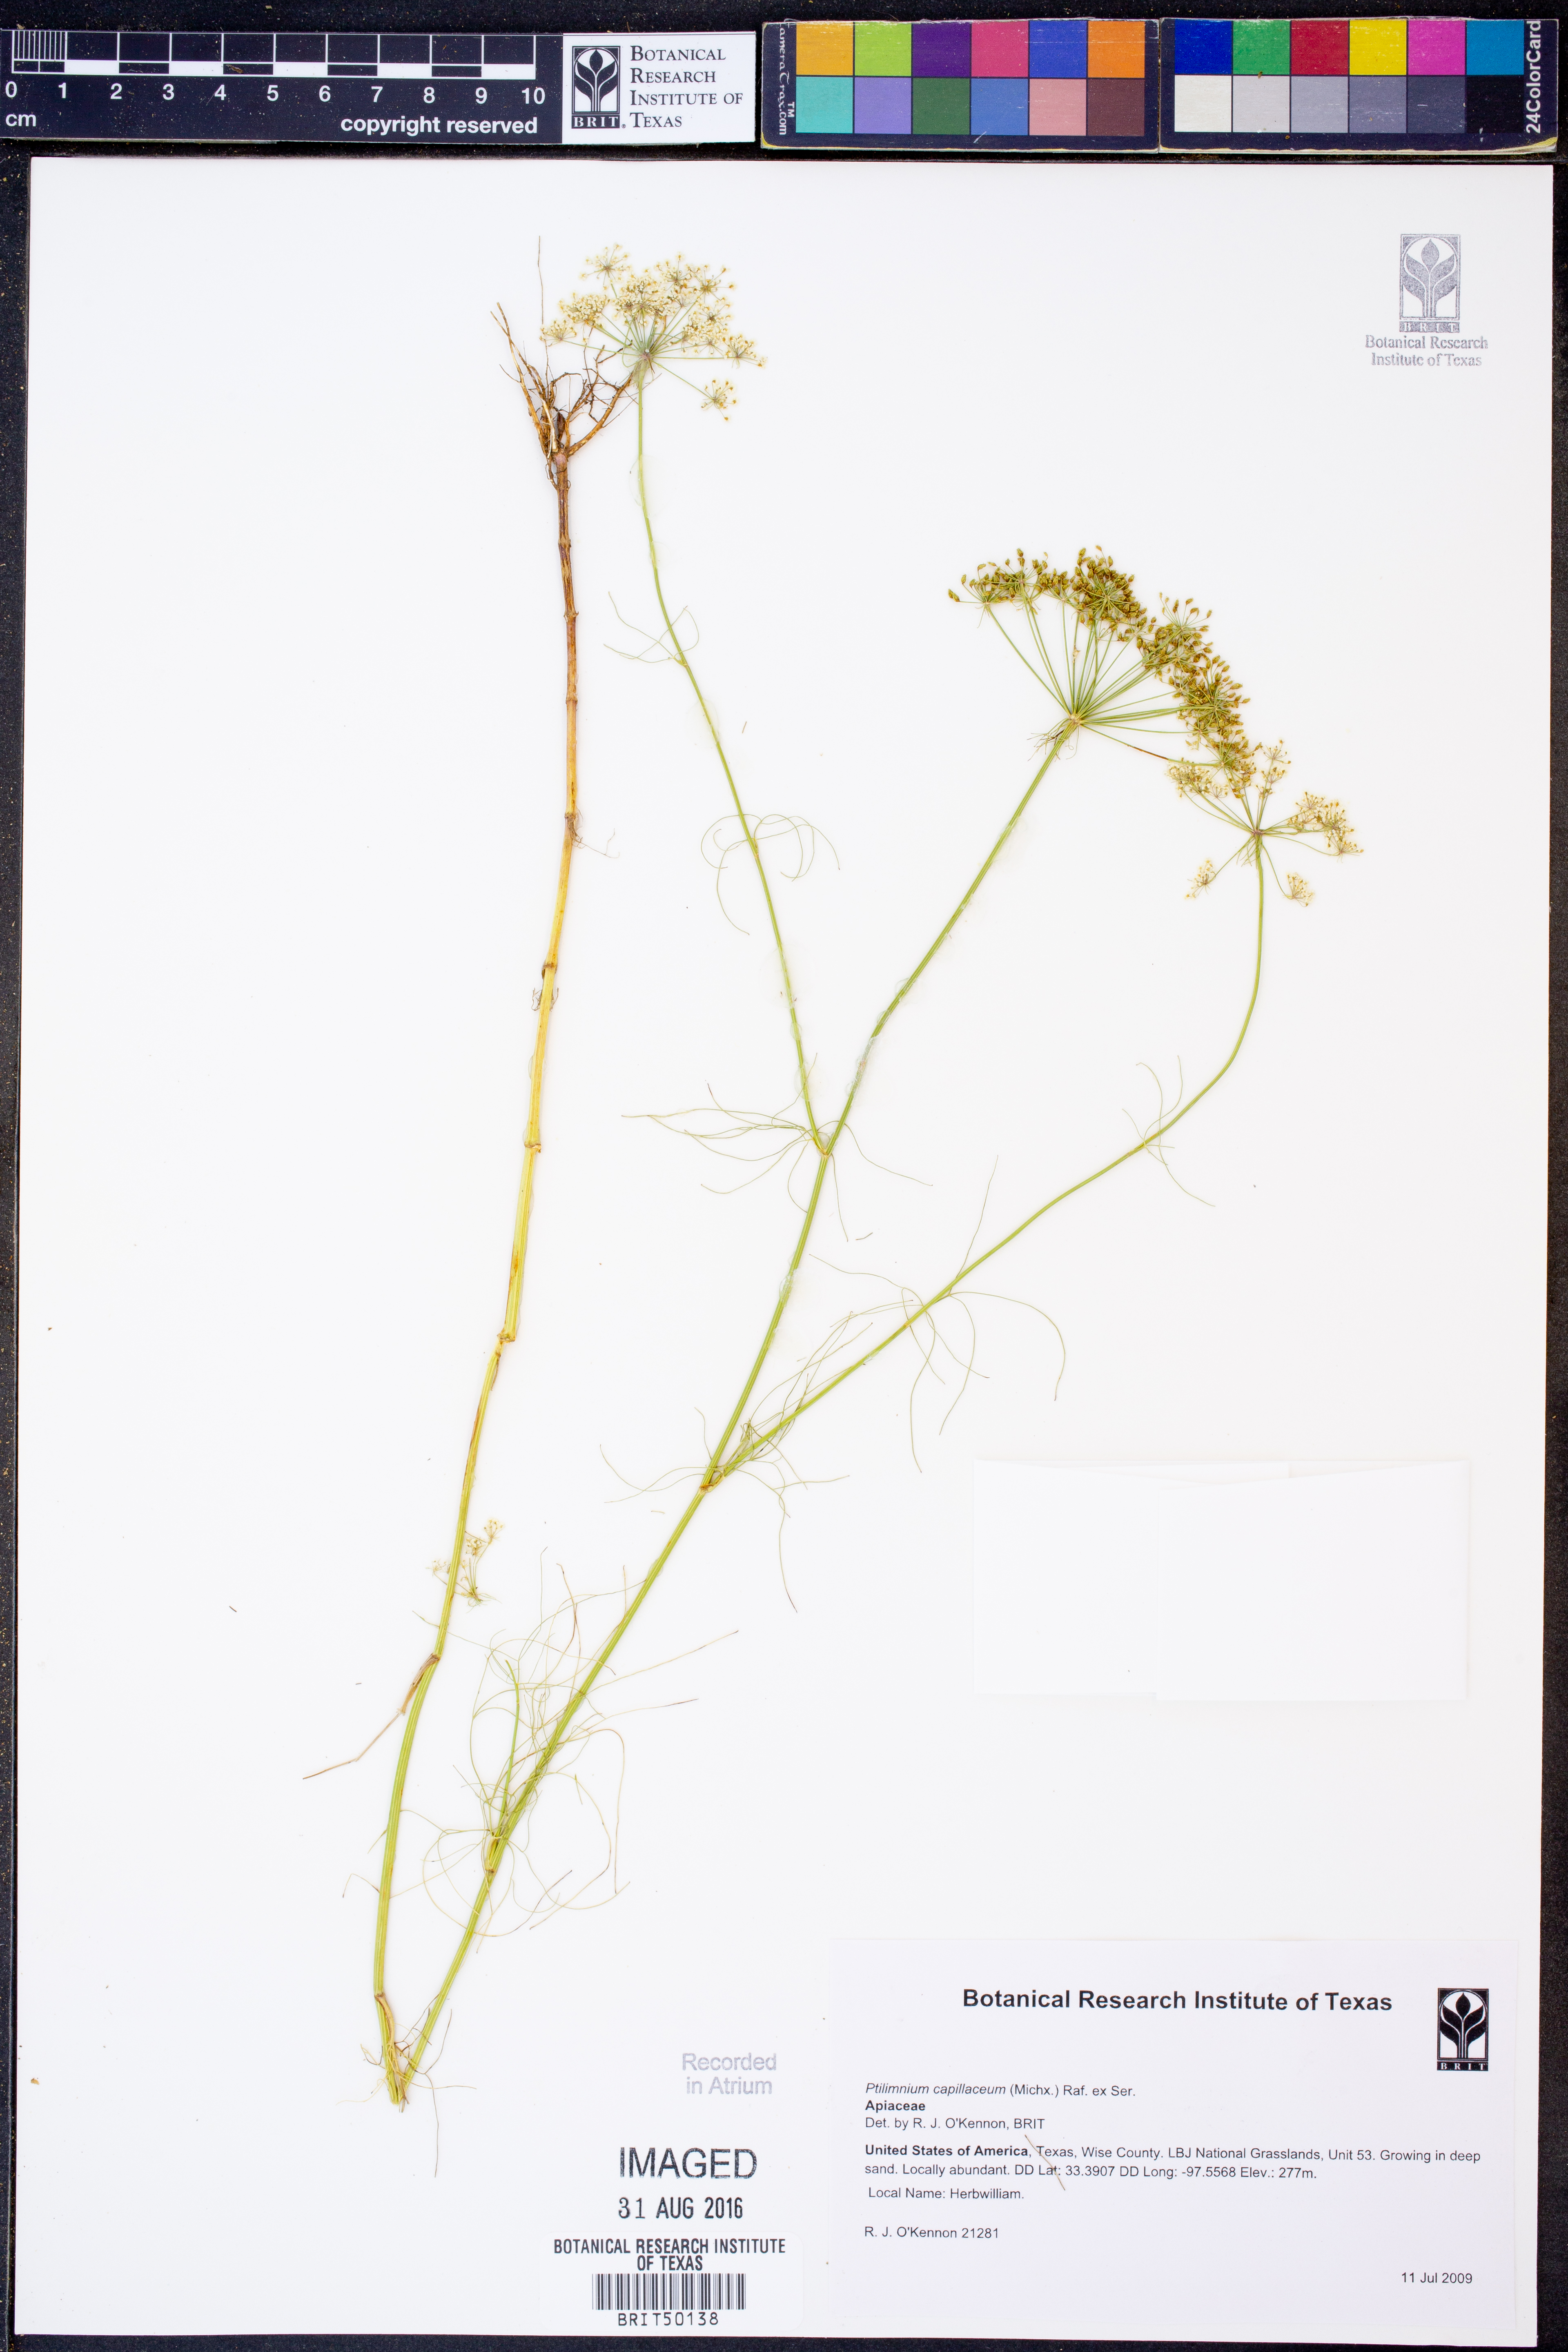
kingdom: Plantae
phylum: Tracheophyta
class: Magnoliopsida
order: Apiales
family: Apiaceae
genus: Ptilimnium
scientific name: Ptilimnium capillaceum
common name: Herbwilliam
